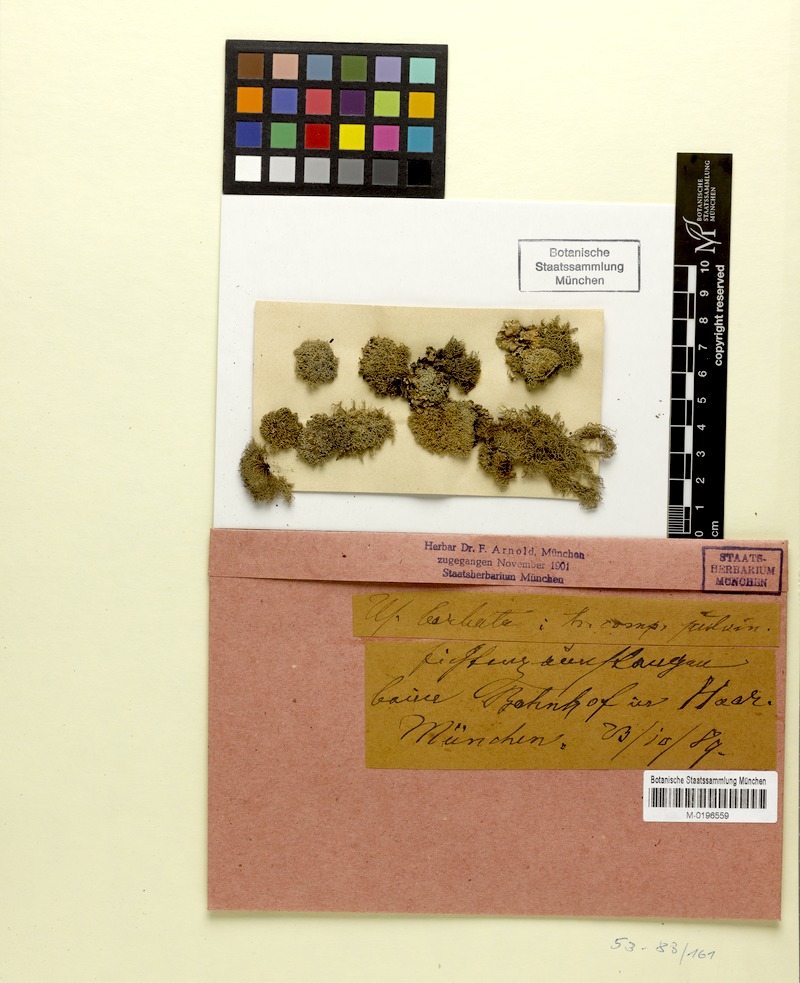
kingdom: Fungi
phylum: Ascomycota
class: Lecanoromycetes
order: Lecanorales
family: Parmeliaceae
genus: Usnea
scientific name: Usnea florida
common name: Witches' whiskers lichen
